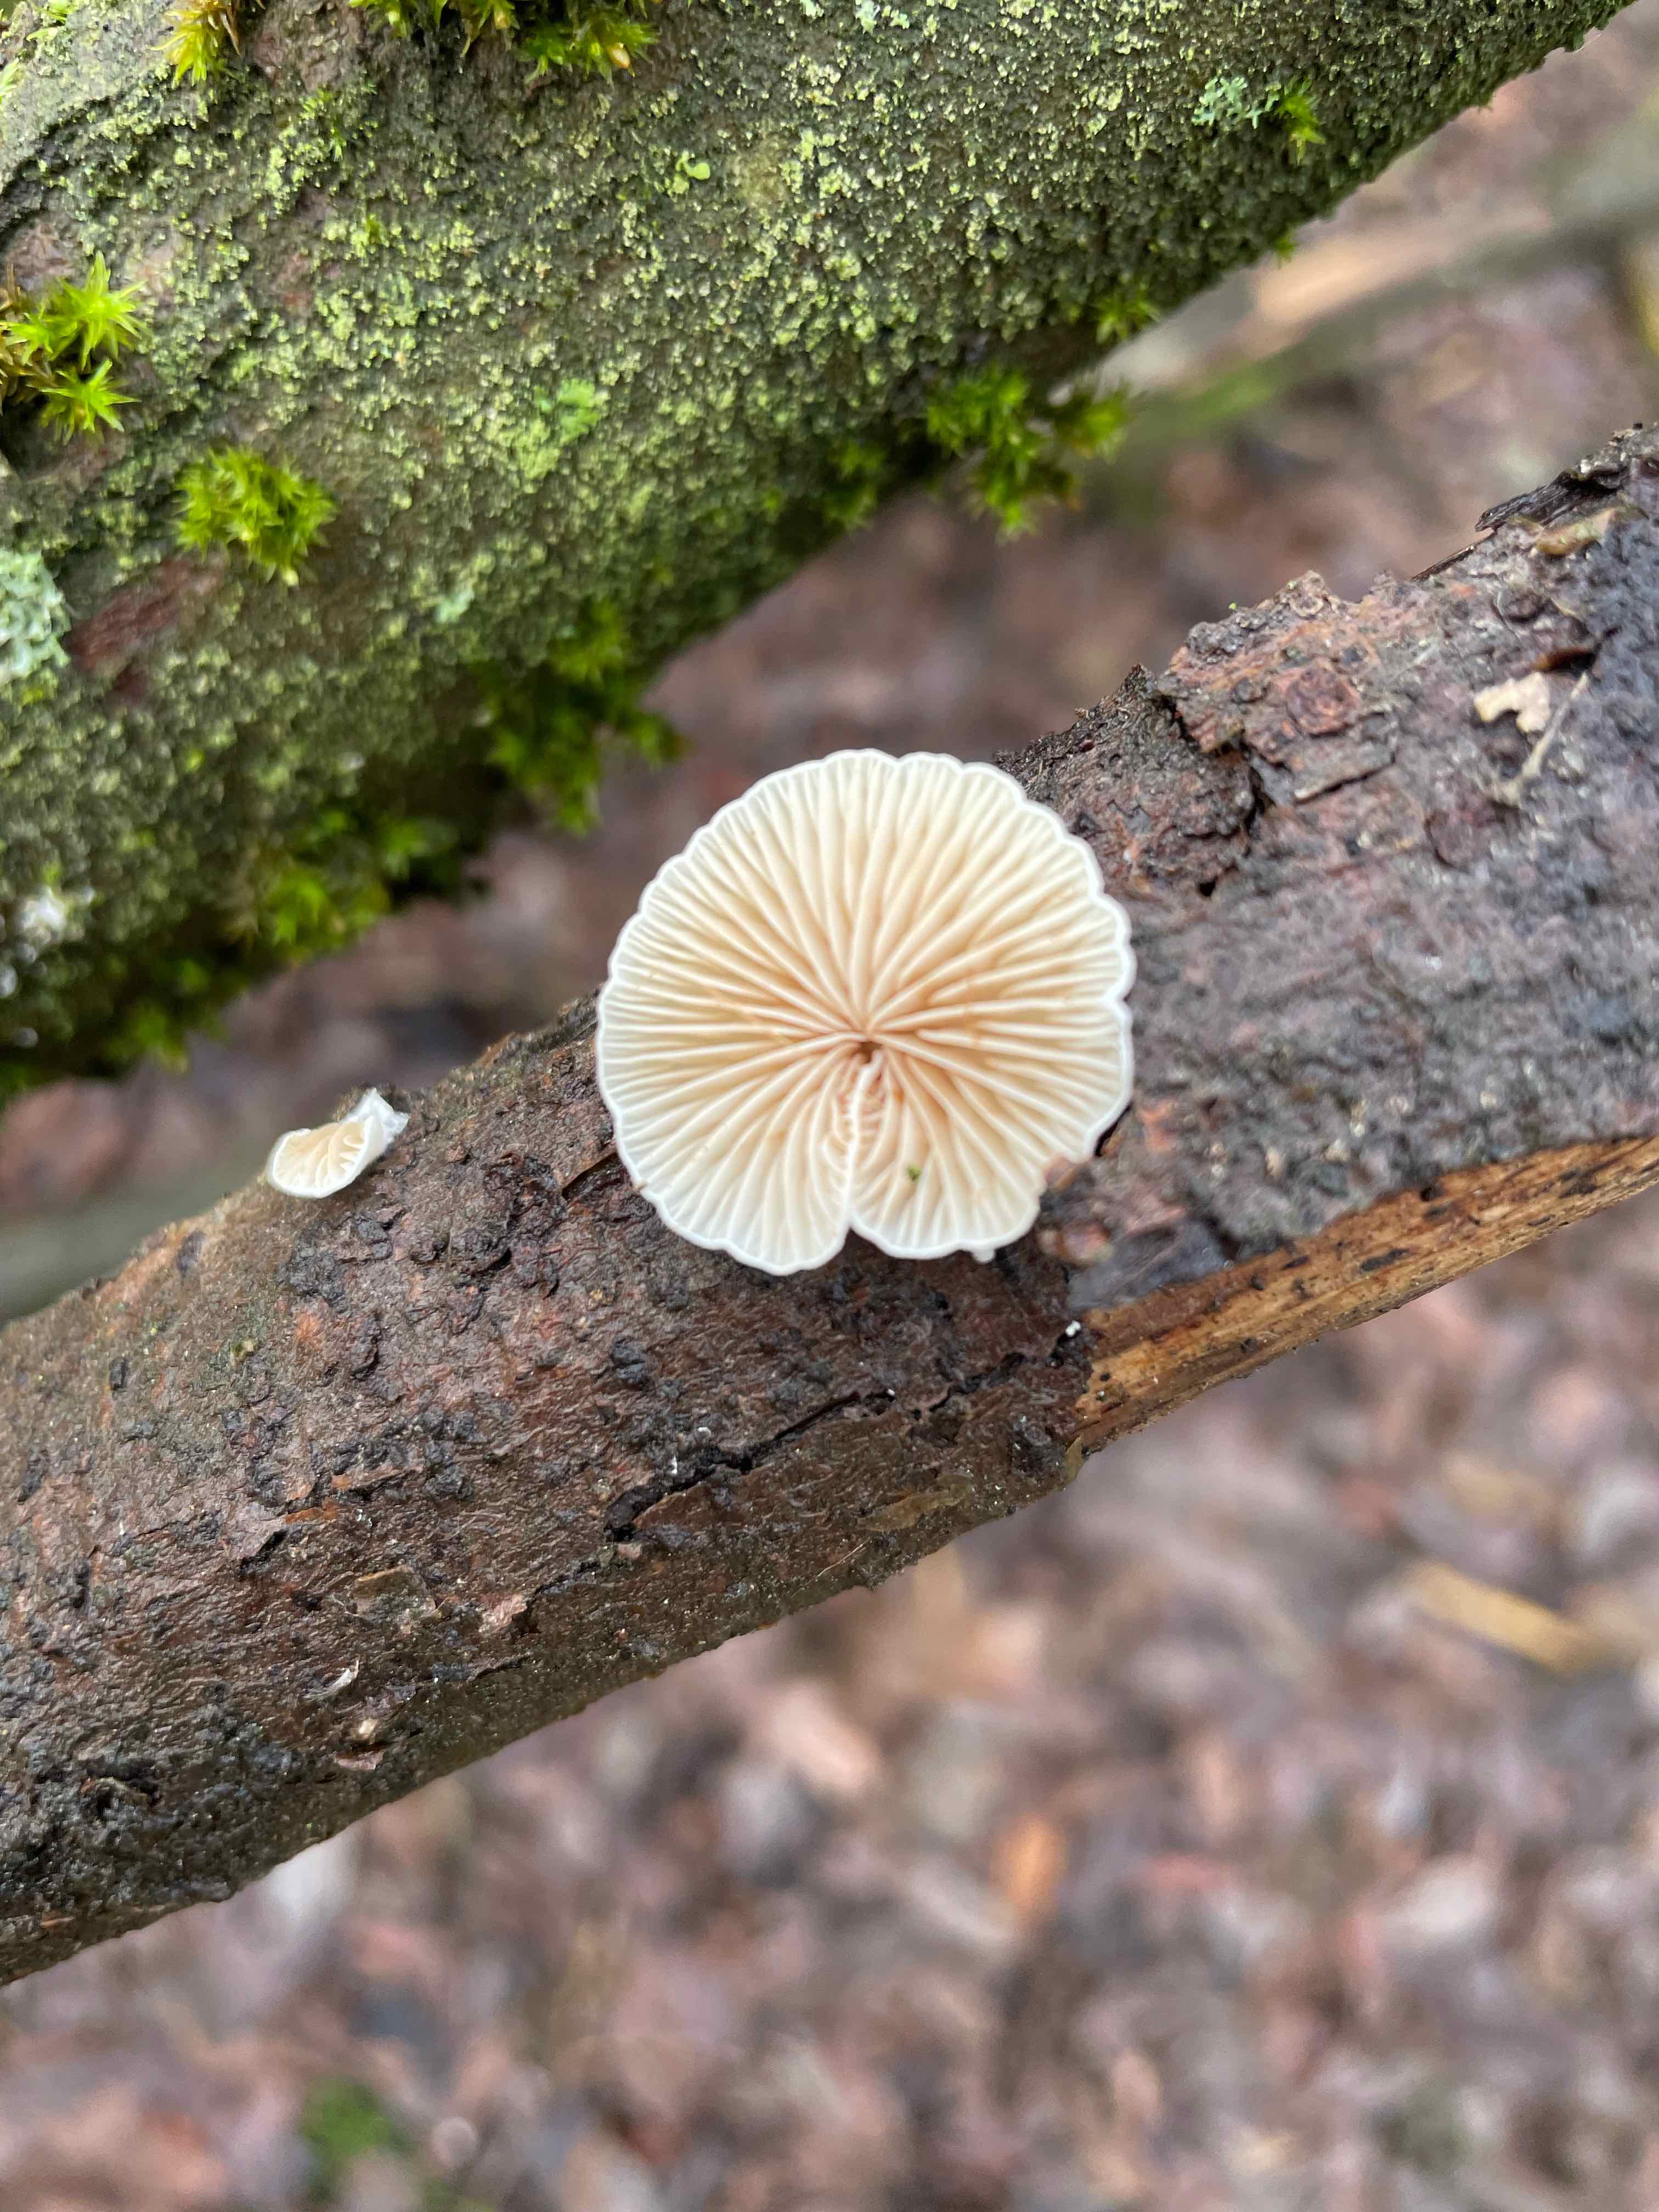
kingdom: Fungi
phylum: Basidiomycota
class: Agaricomycetes
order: Agaricales
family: Crepidotaceae
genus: Crepidotus
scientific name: Crepidotus
